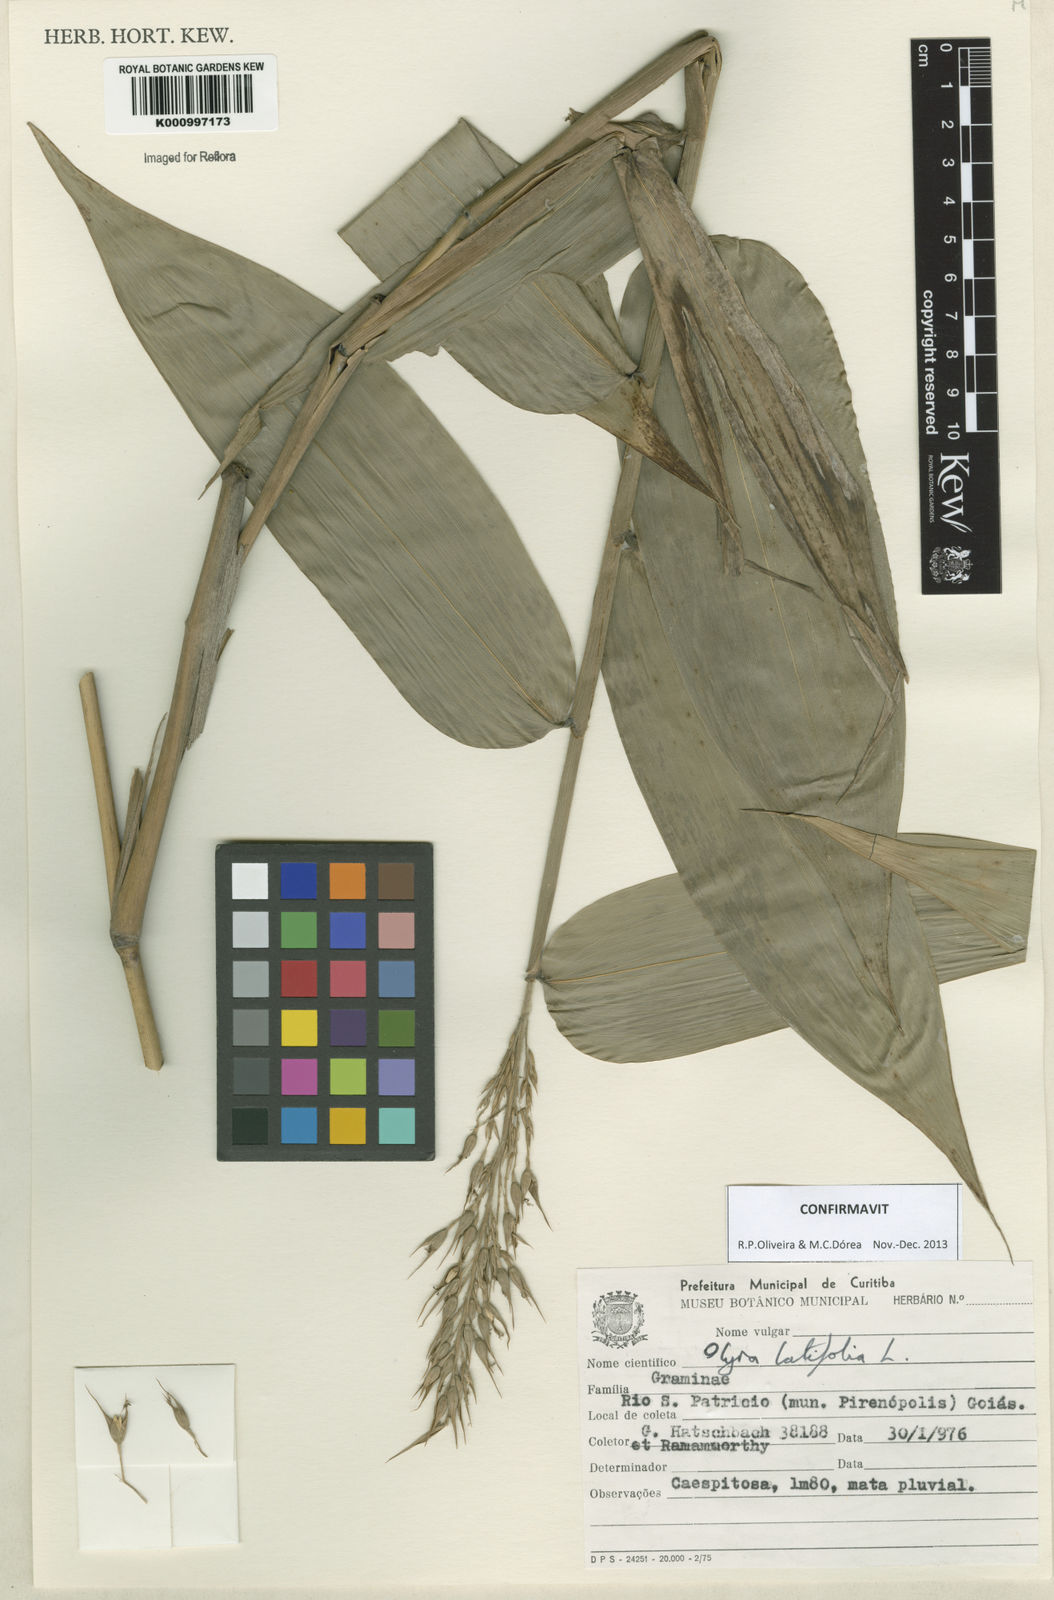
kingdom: Plantae
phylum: Tracheophyta
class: Liliopsida
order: Poales
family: Poaceae
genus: Olyra
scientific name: Olyra latifolia
